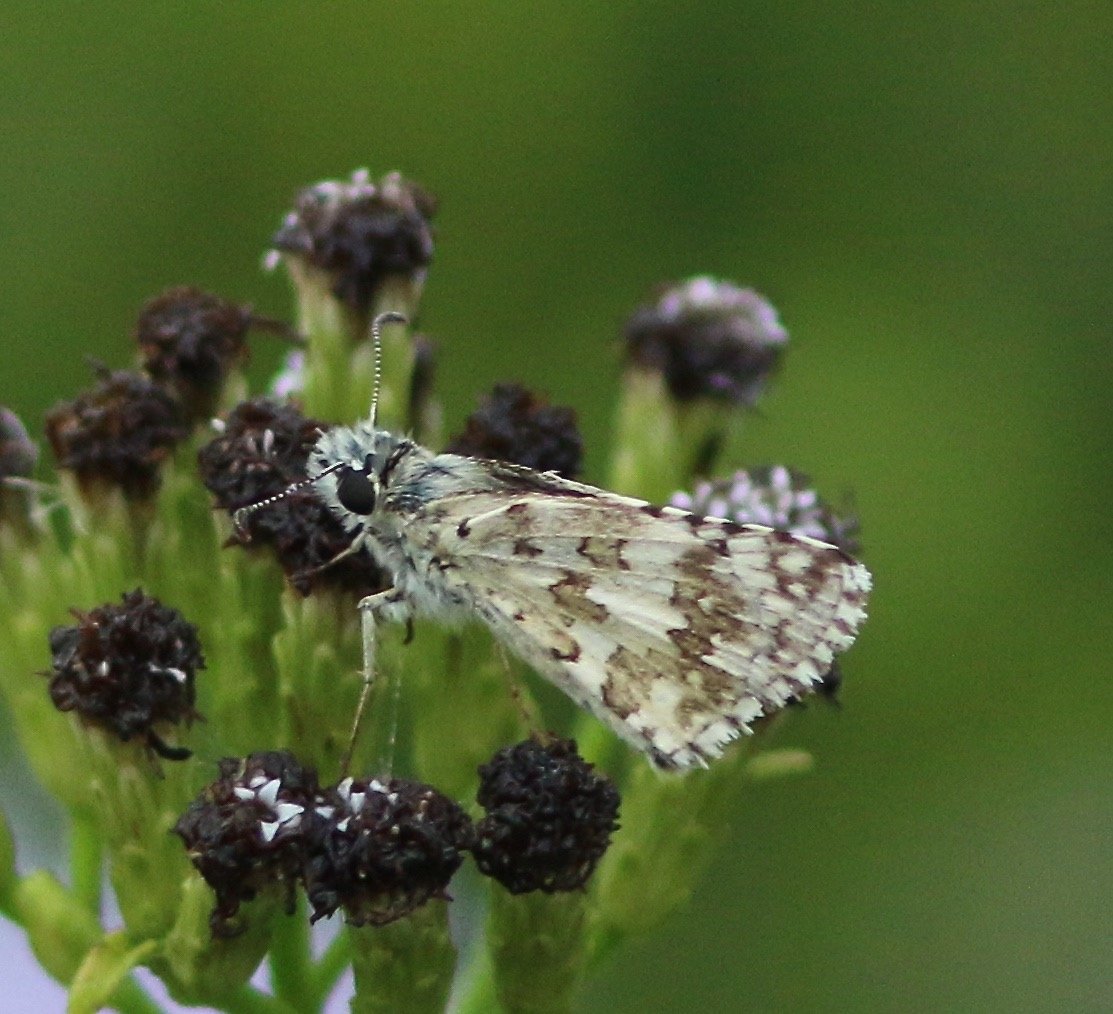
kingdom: Animalia
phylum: Arthropoda
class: Insecta
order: Lepidoptera
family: Hesperiidae
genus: Pyrgus
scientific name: Pyrgus communis
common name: White Checkered-Skipper
